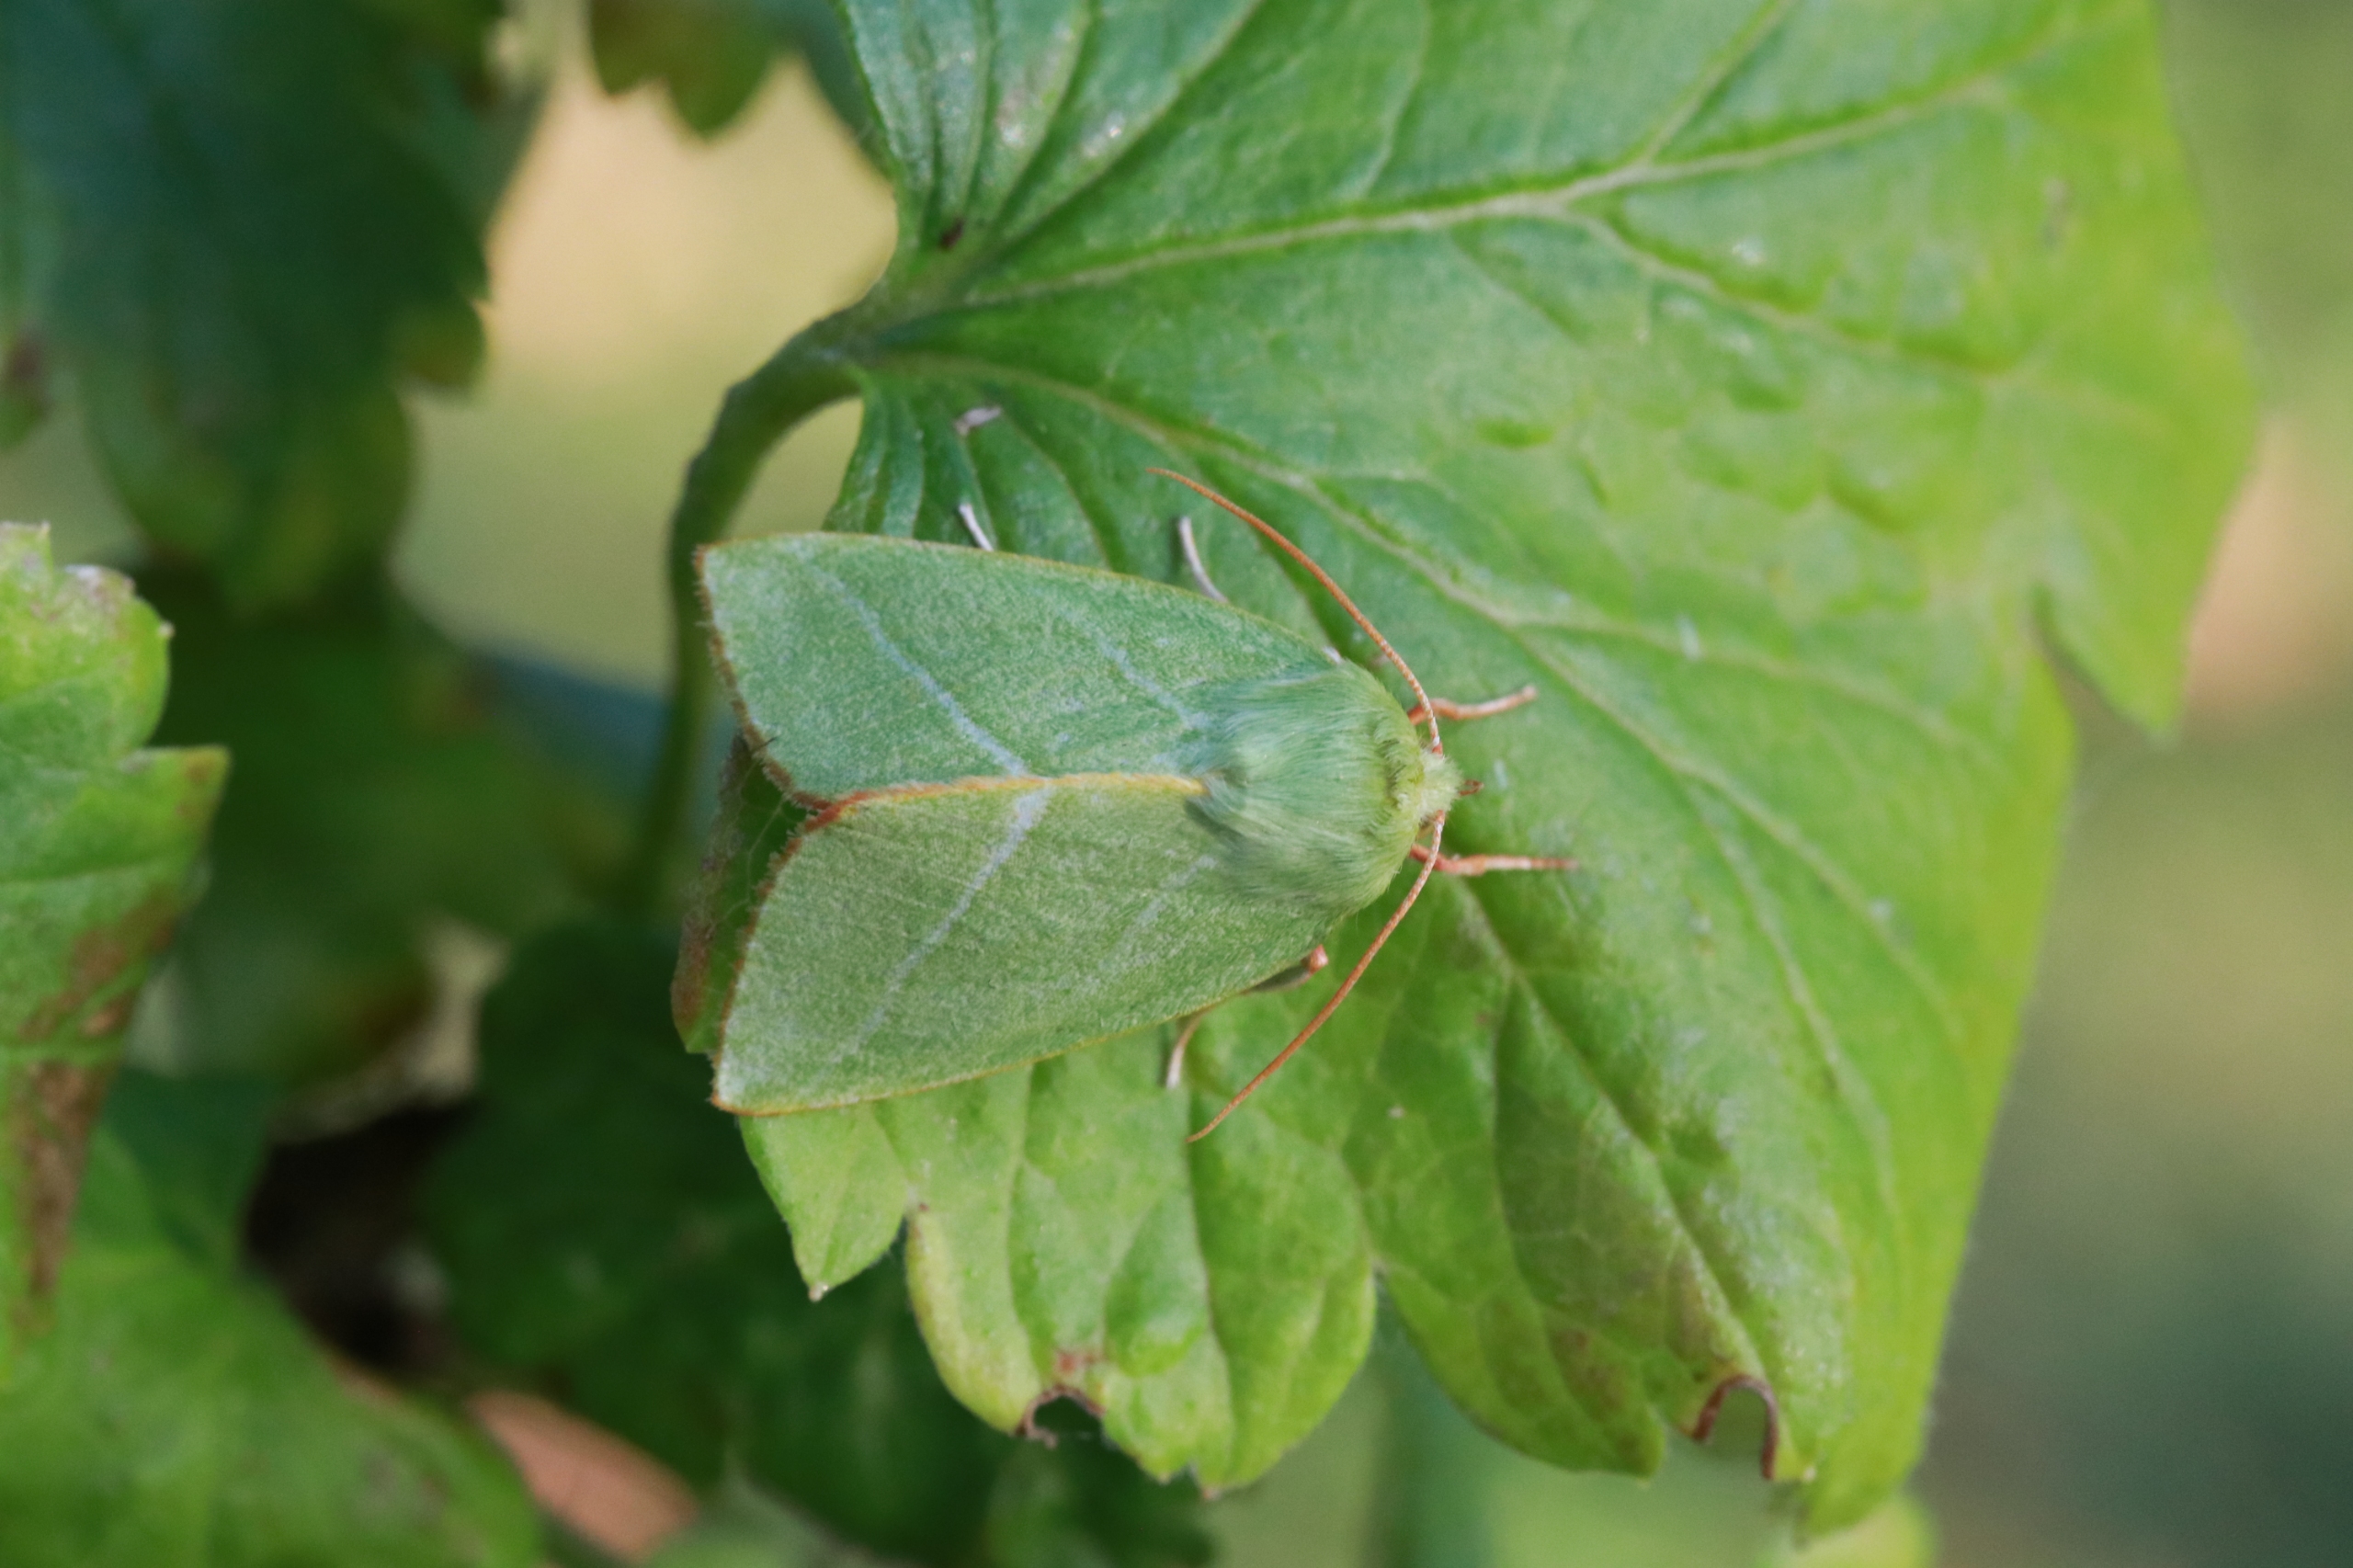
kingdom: Animalia
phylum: Arthropoda
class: Insecta
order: Lepidoptera
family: Nolidae
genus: Pseudoips
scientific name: Pseudoips prasinana
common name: Grøn bøgeugle
